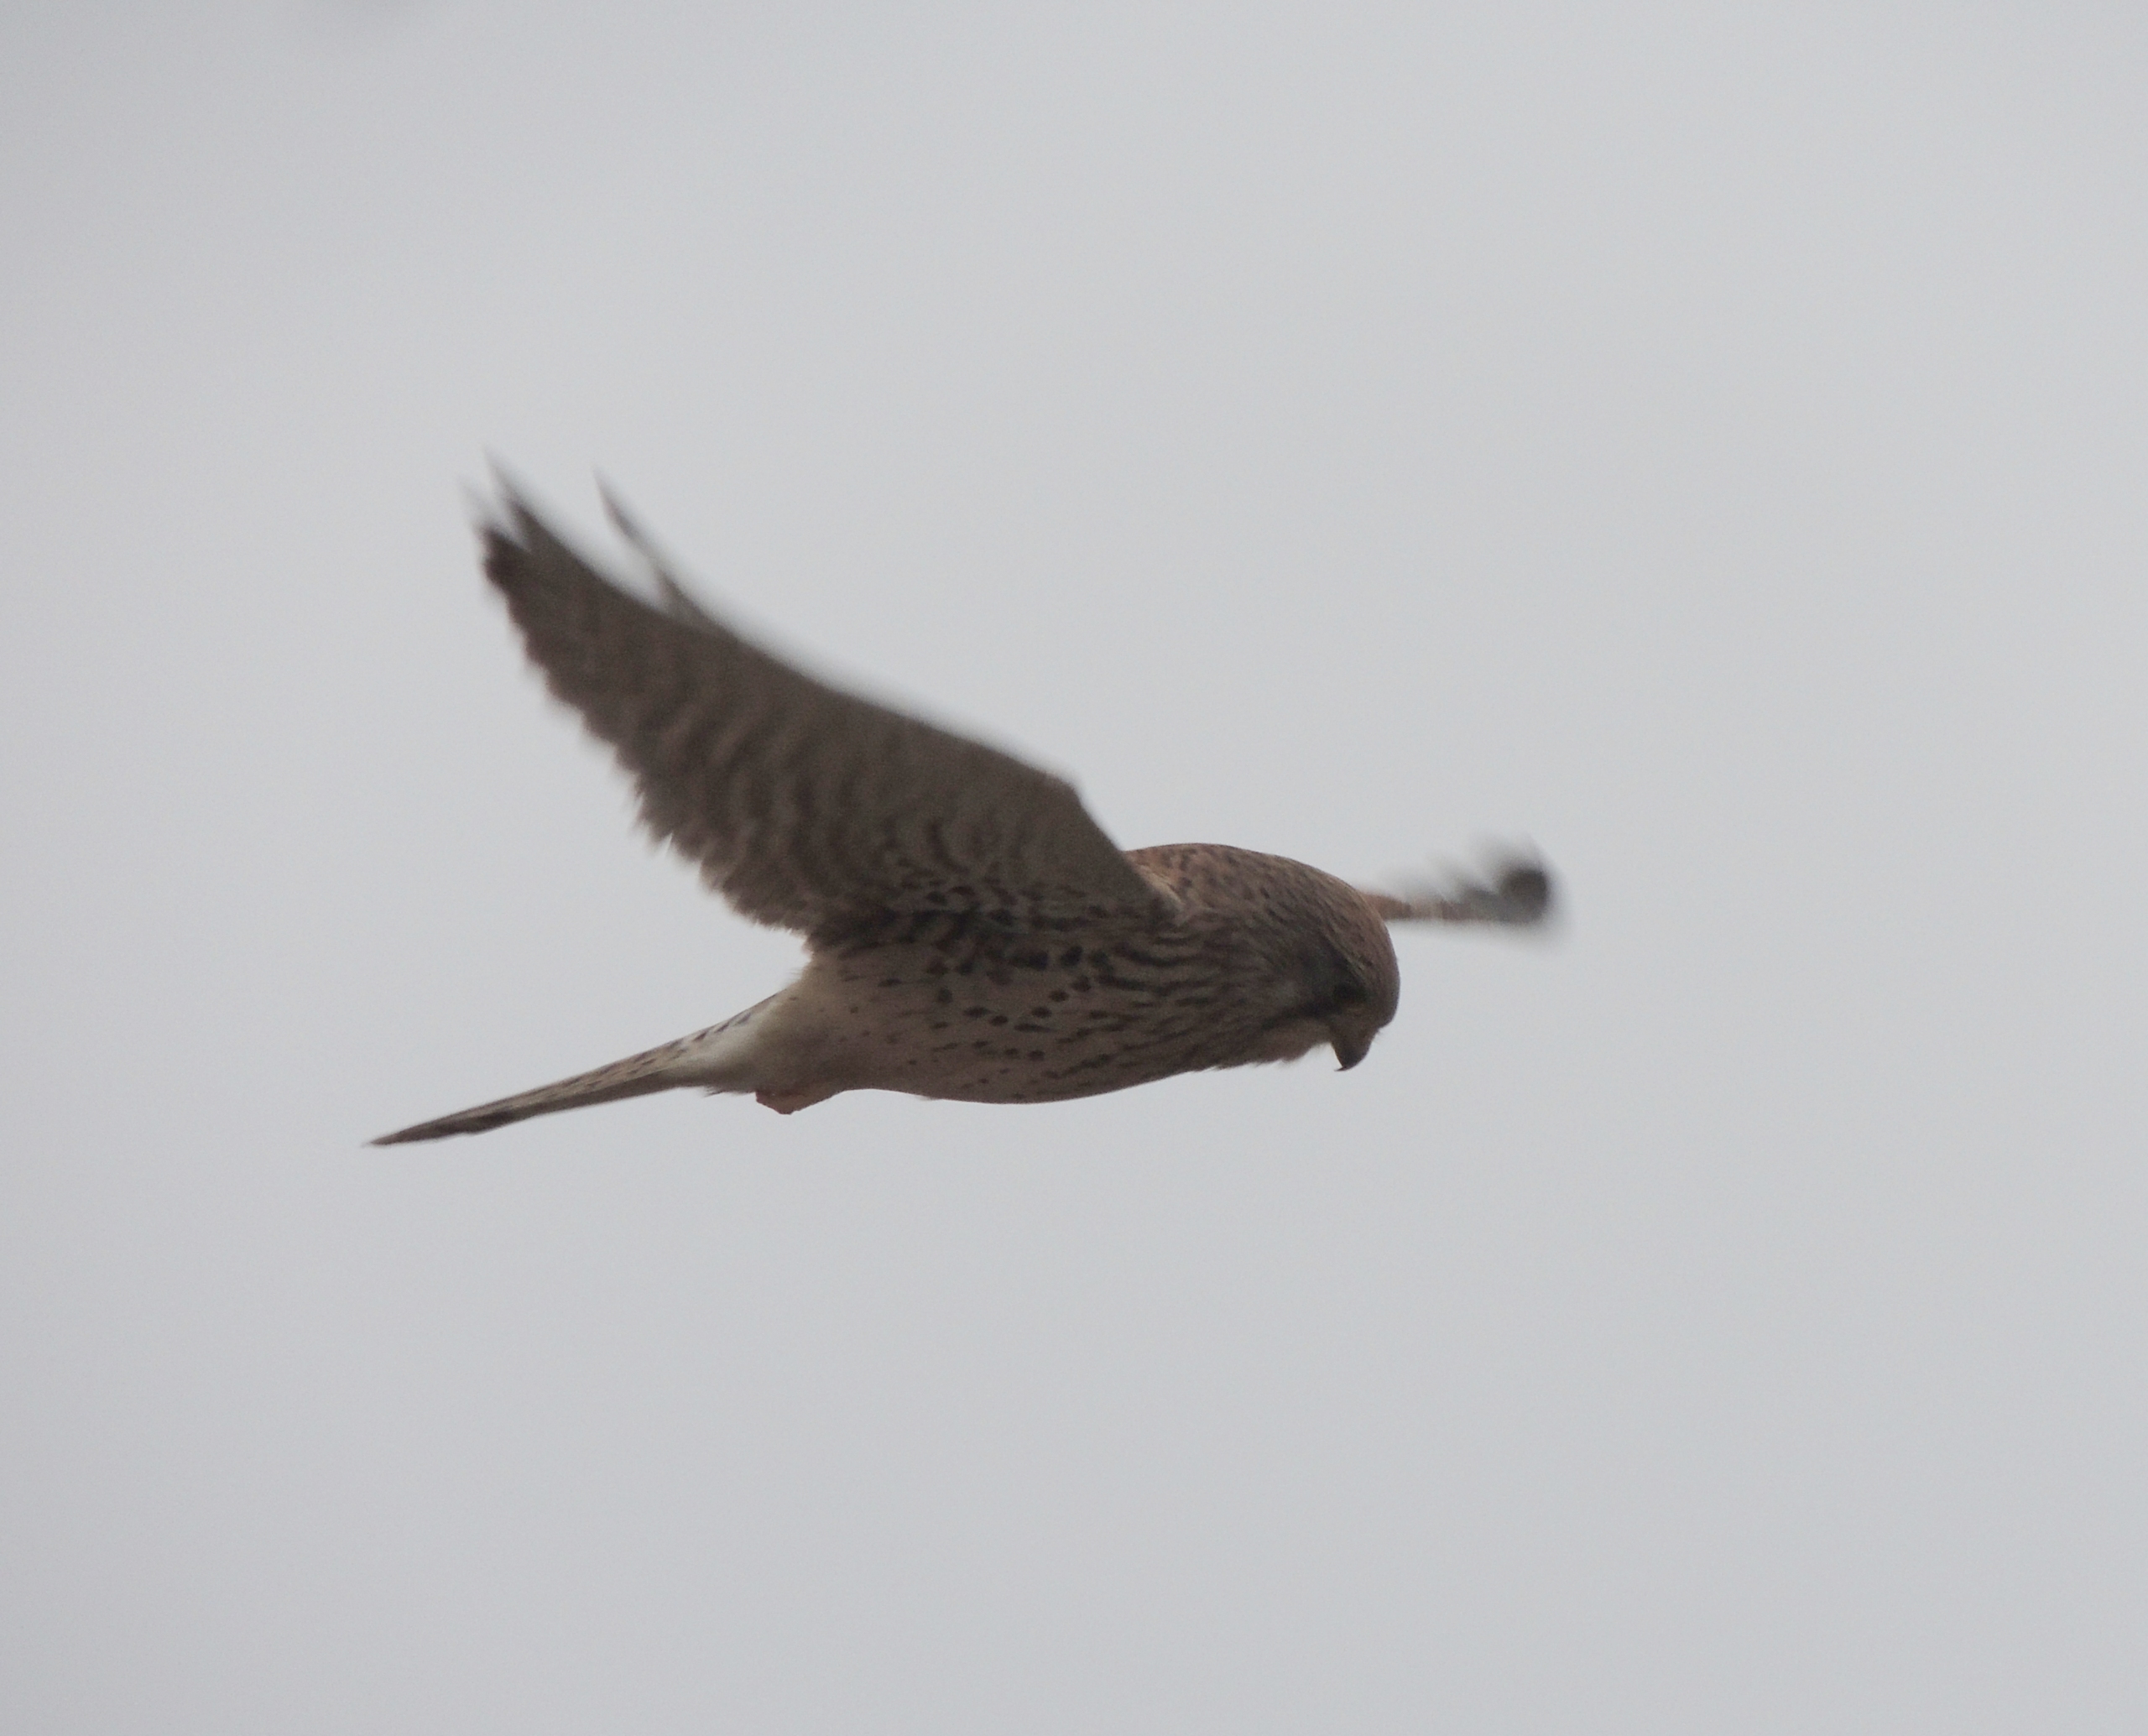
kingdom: Animalia
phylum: Chordata
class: Aves
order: Falconiformes
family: Falconidae
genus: Falco
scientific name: Falco tinnunculus
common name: Tårnfalk
